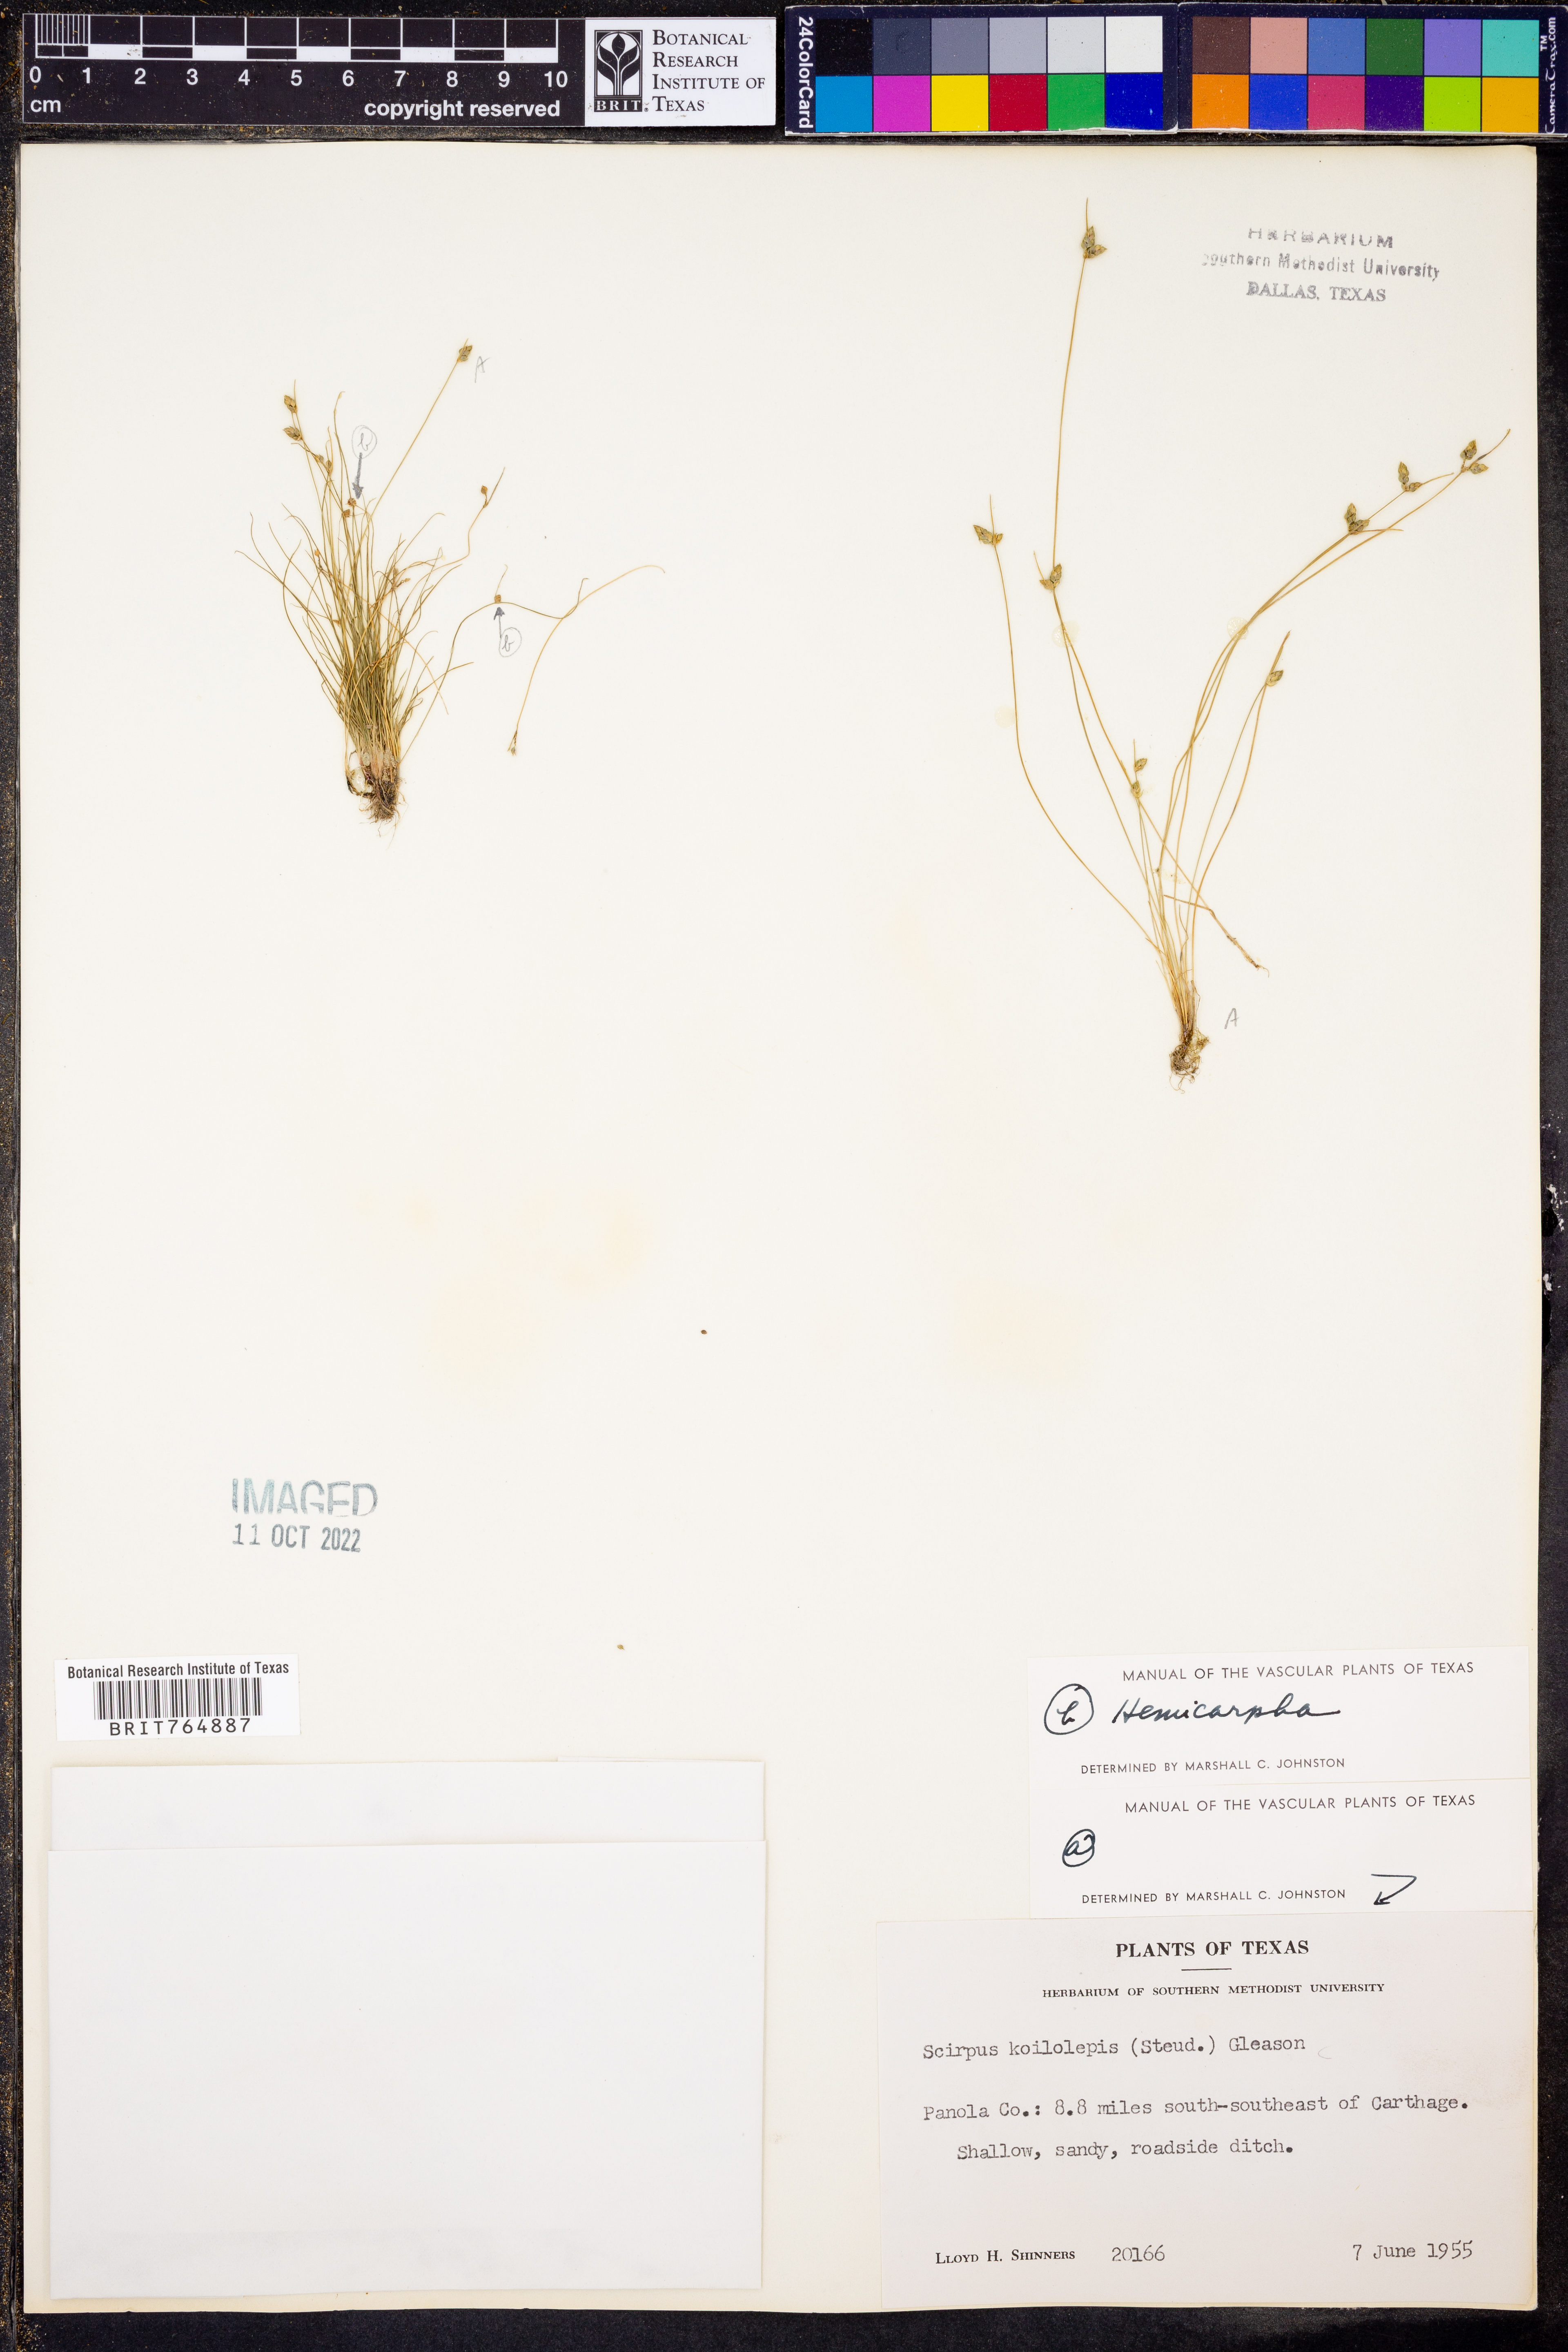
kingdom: Plantae
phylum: Tracheophyta
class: Liliopsida
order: Poales
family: Cyperaceae
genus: Isolepis
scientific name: Isolepis carinata
